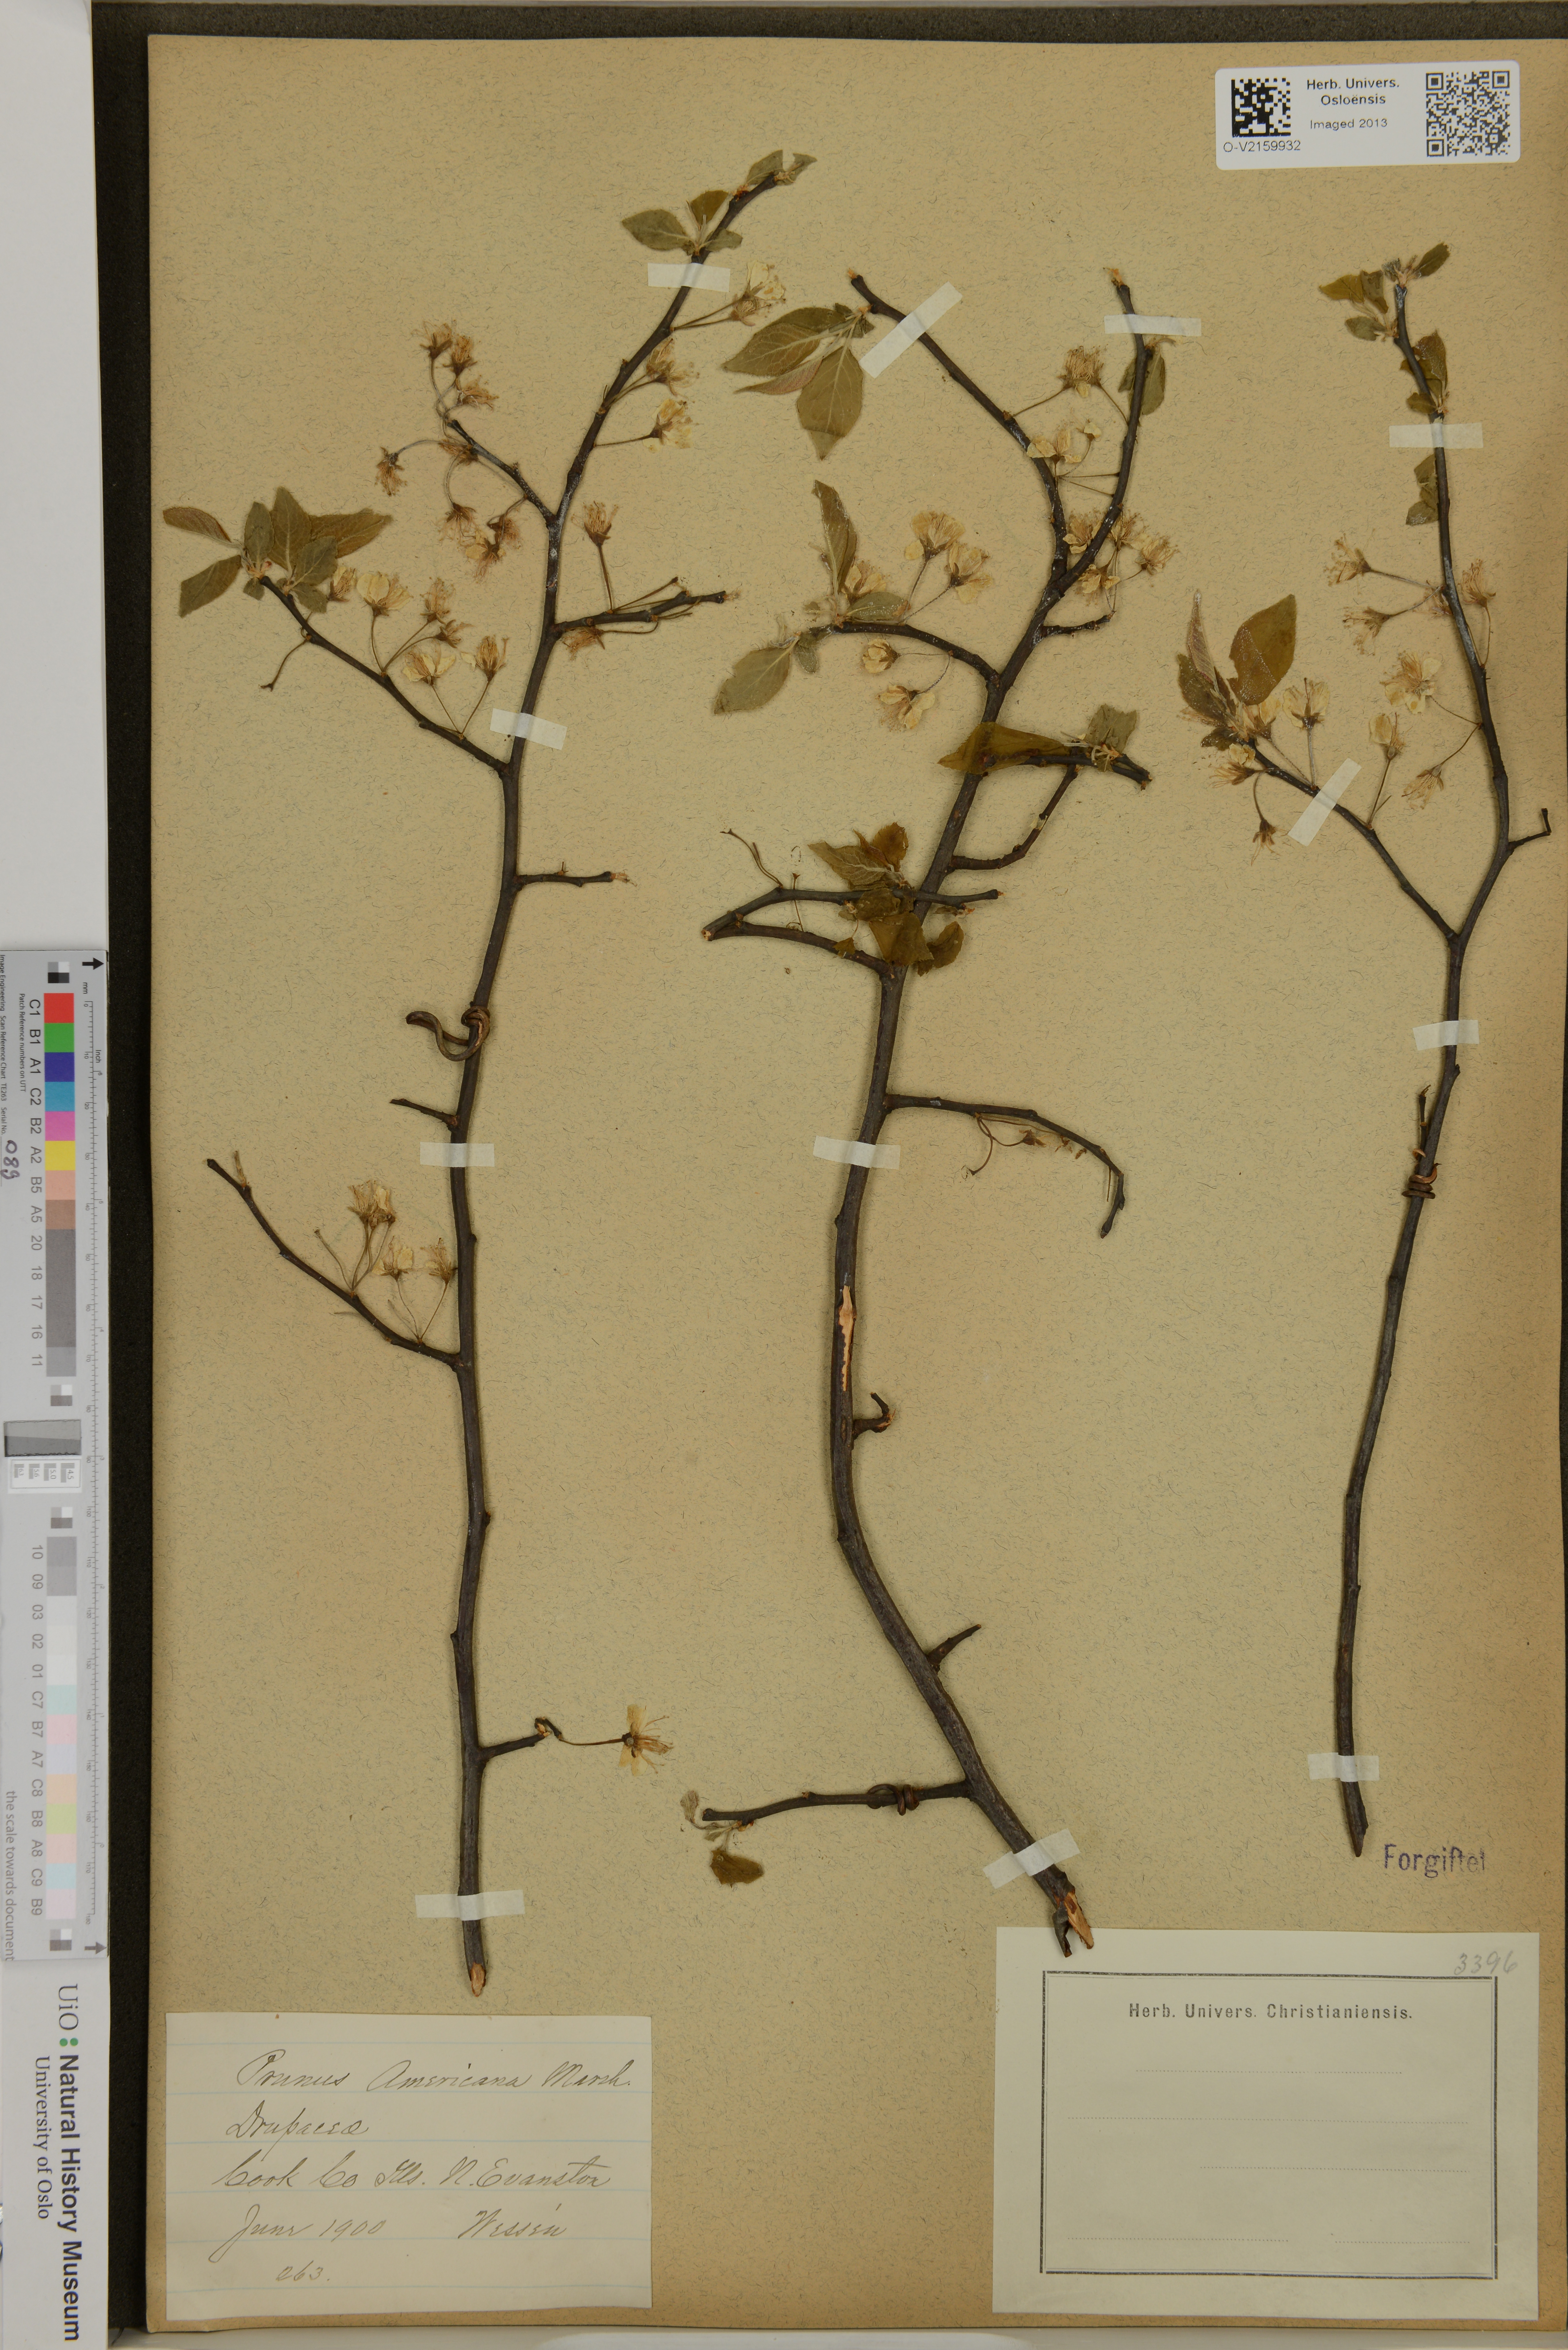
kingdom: Plantae
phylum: Tracheophyta
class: Magnoliopsida
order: Rosales
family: Rosaceae
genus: Prunus
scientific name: Prunus americana
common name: American plum
